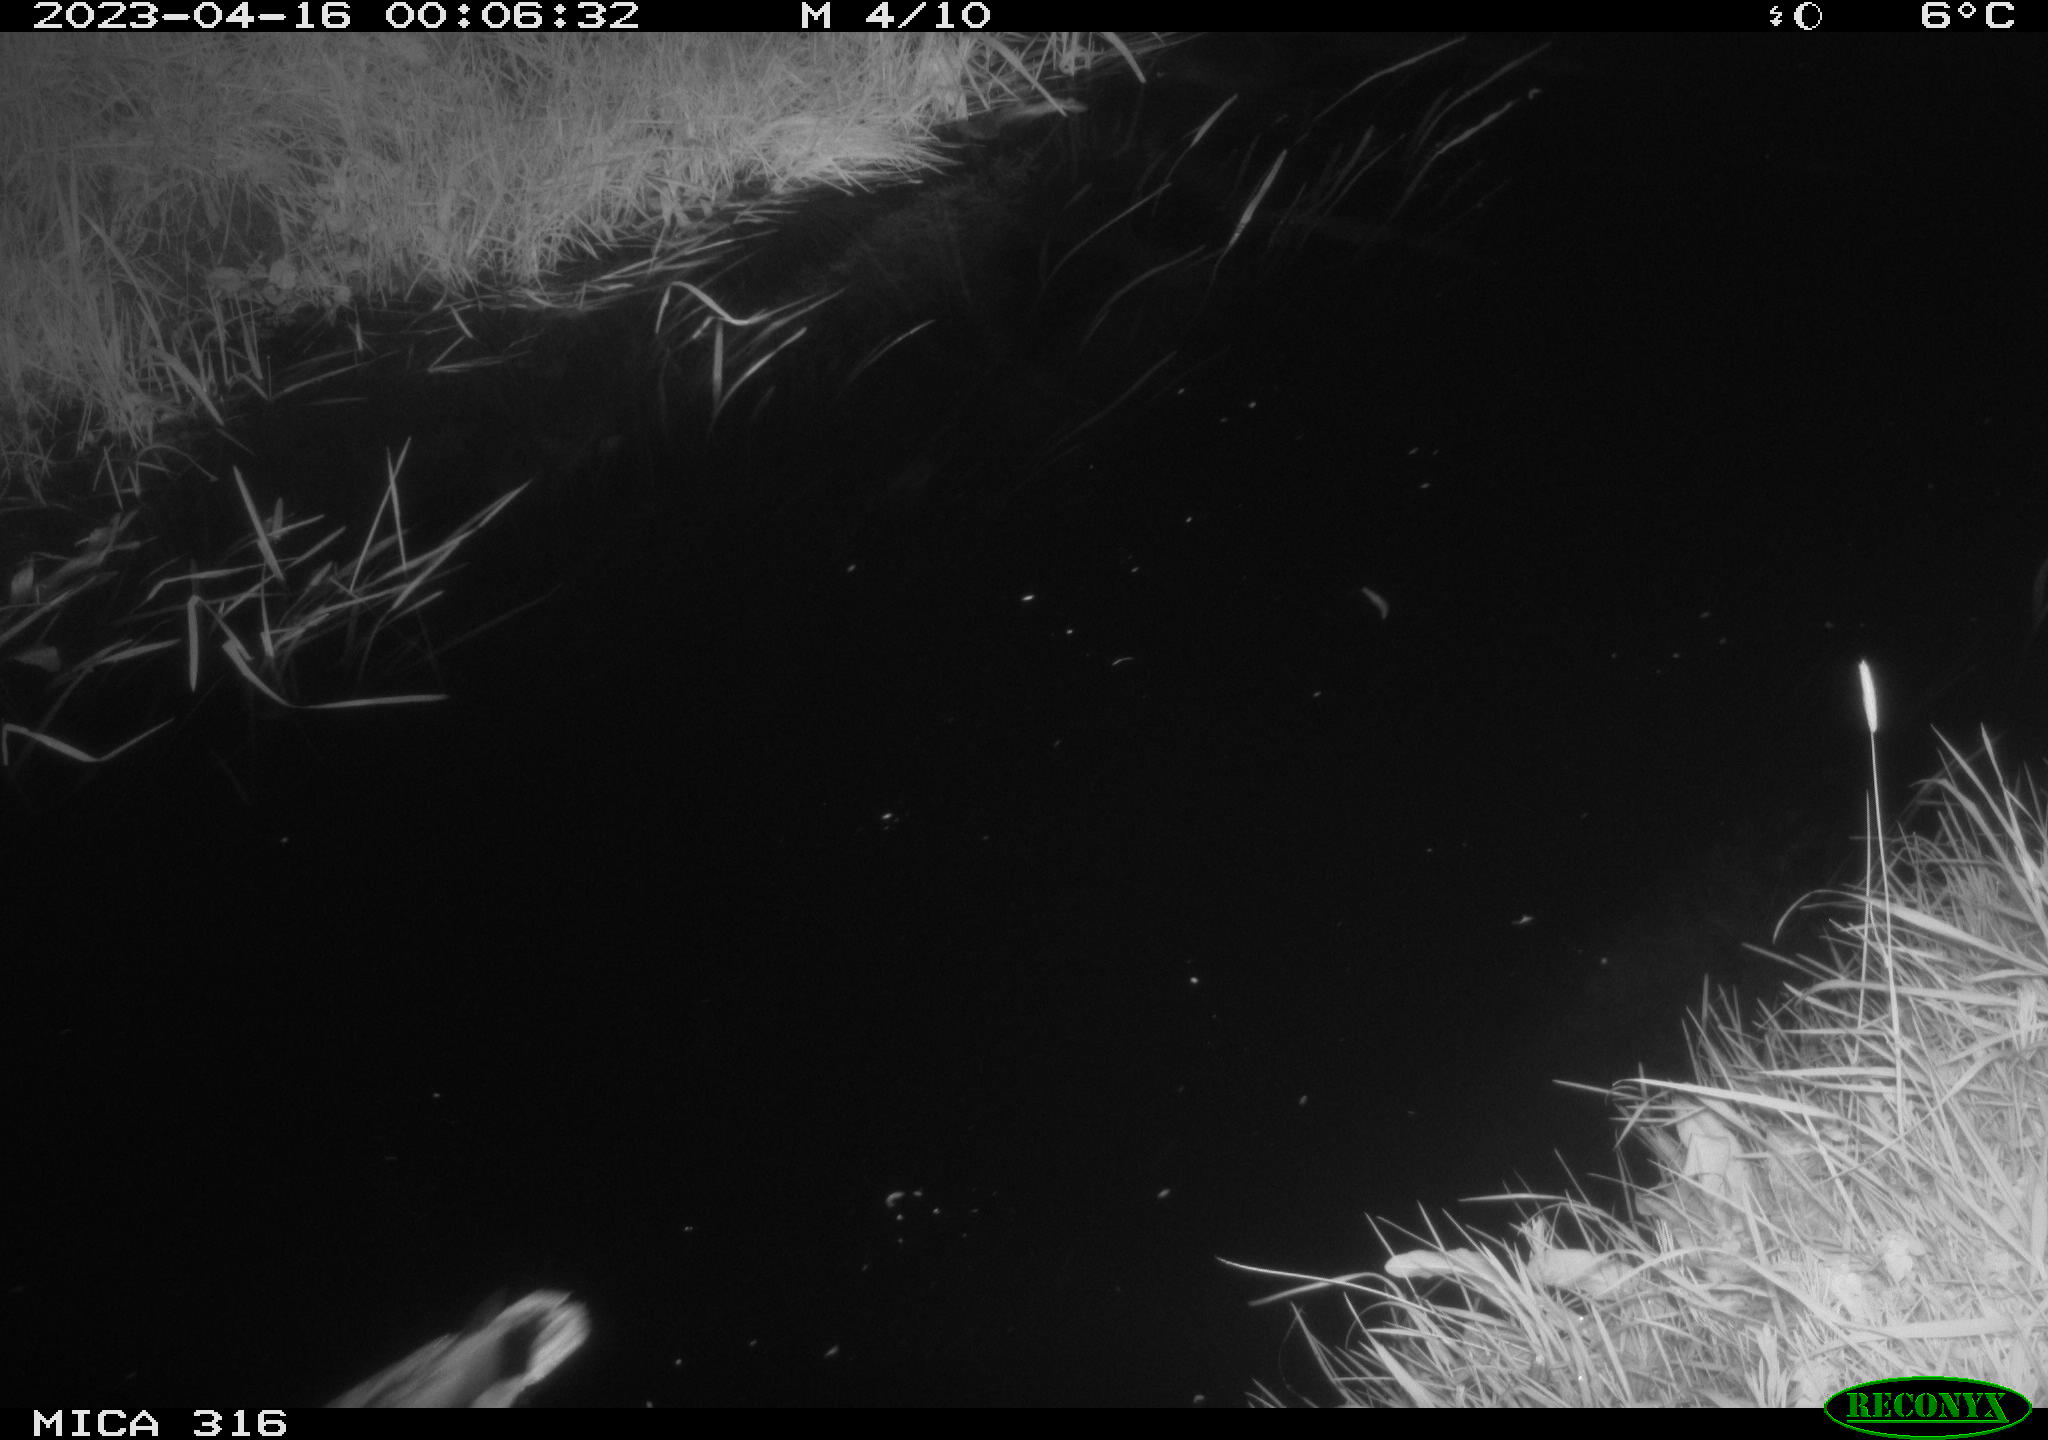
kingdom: Animalia
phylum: Chordata
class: Aves
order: Anseriformes
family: Anatidae
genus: Anas
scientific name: Anas
